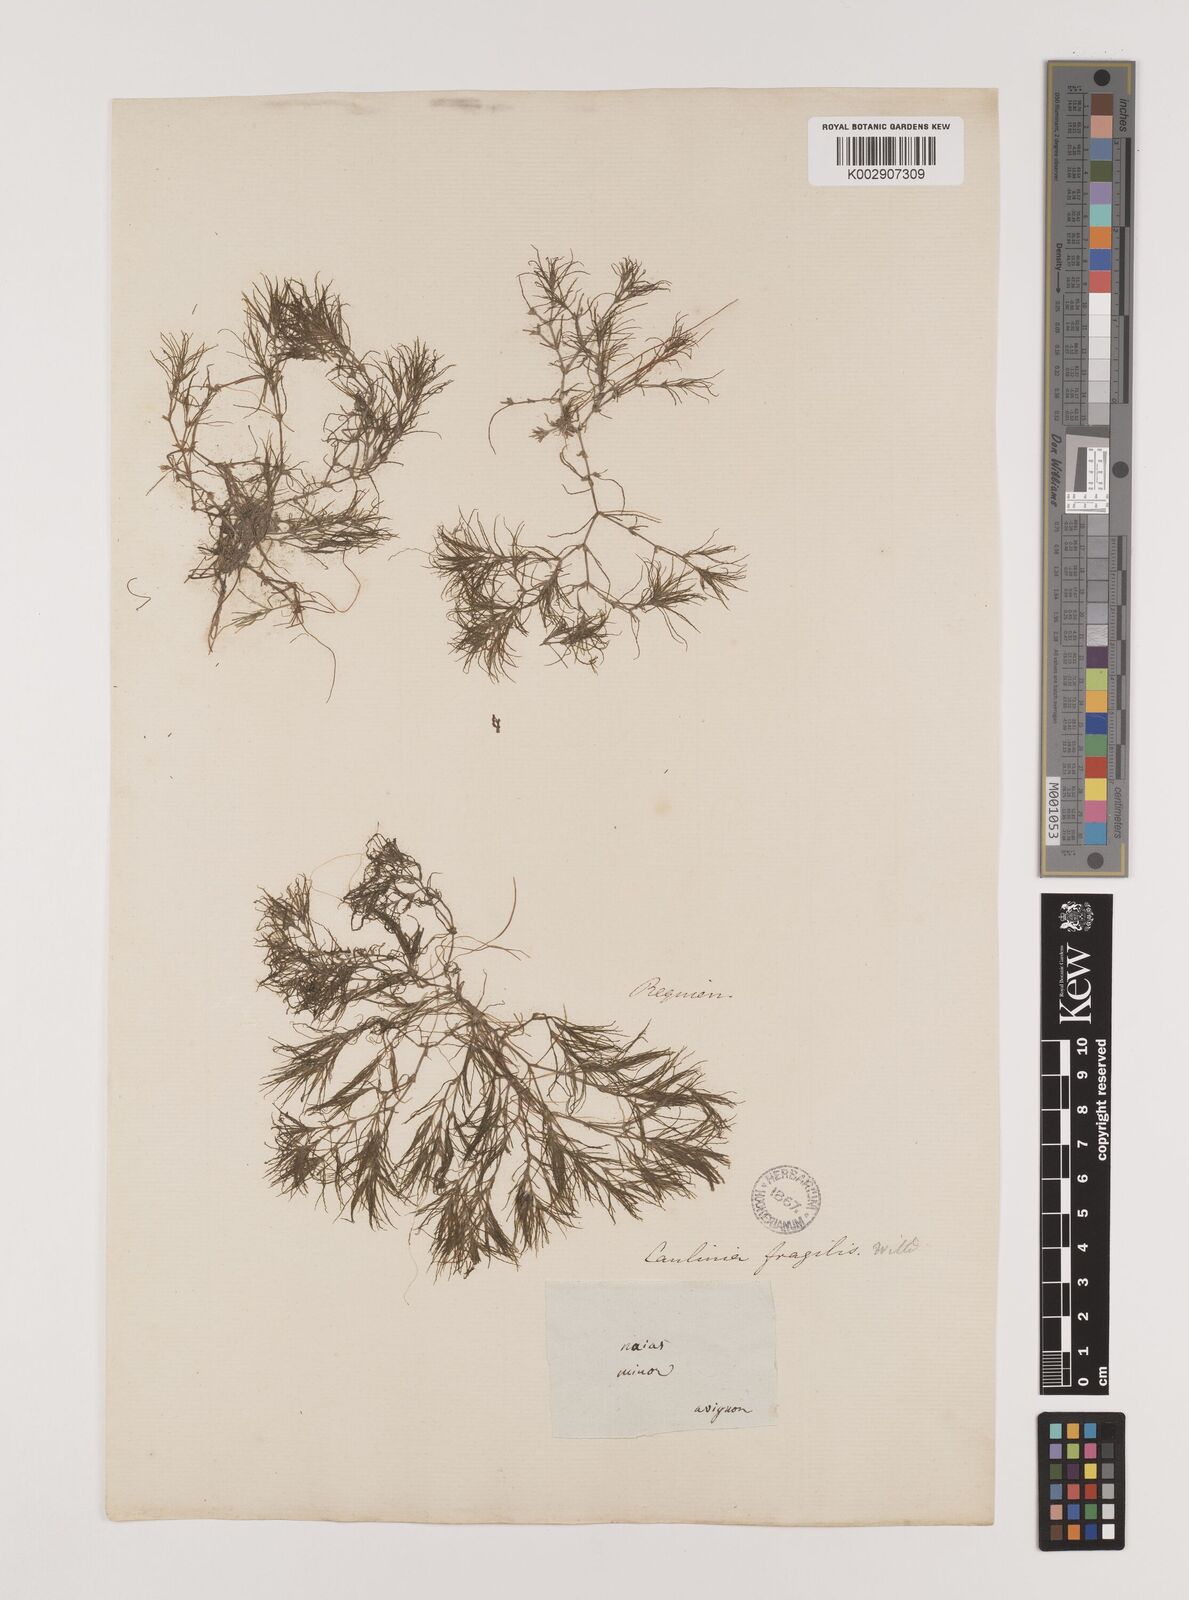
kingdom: Plantae
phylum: Tracheophyta
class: Liliopsida
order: Alismatales
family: Hydrocharitaceae
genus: Najas
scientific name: Najas minor
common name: Brittle naiad
